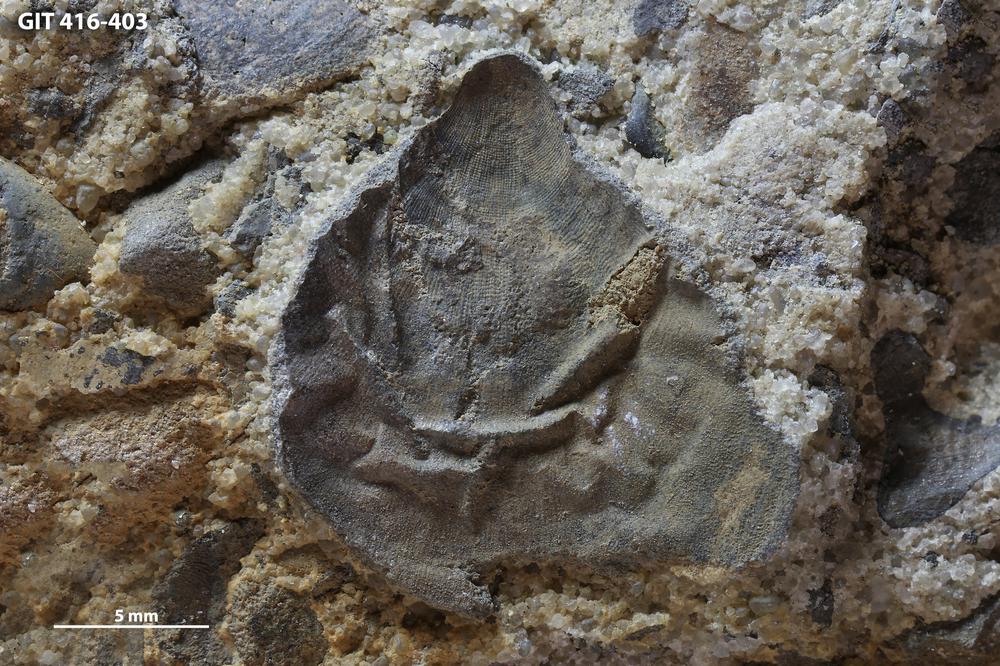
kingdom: Animalia
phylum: Brachiopoda
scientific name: Brachiopoda
